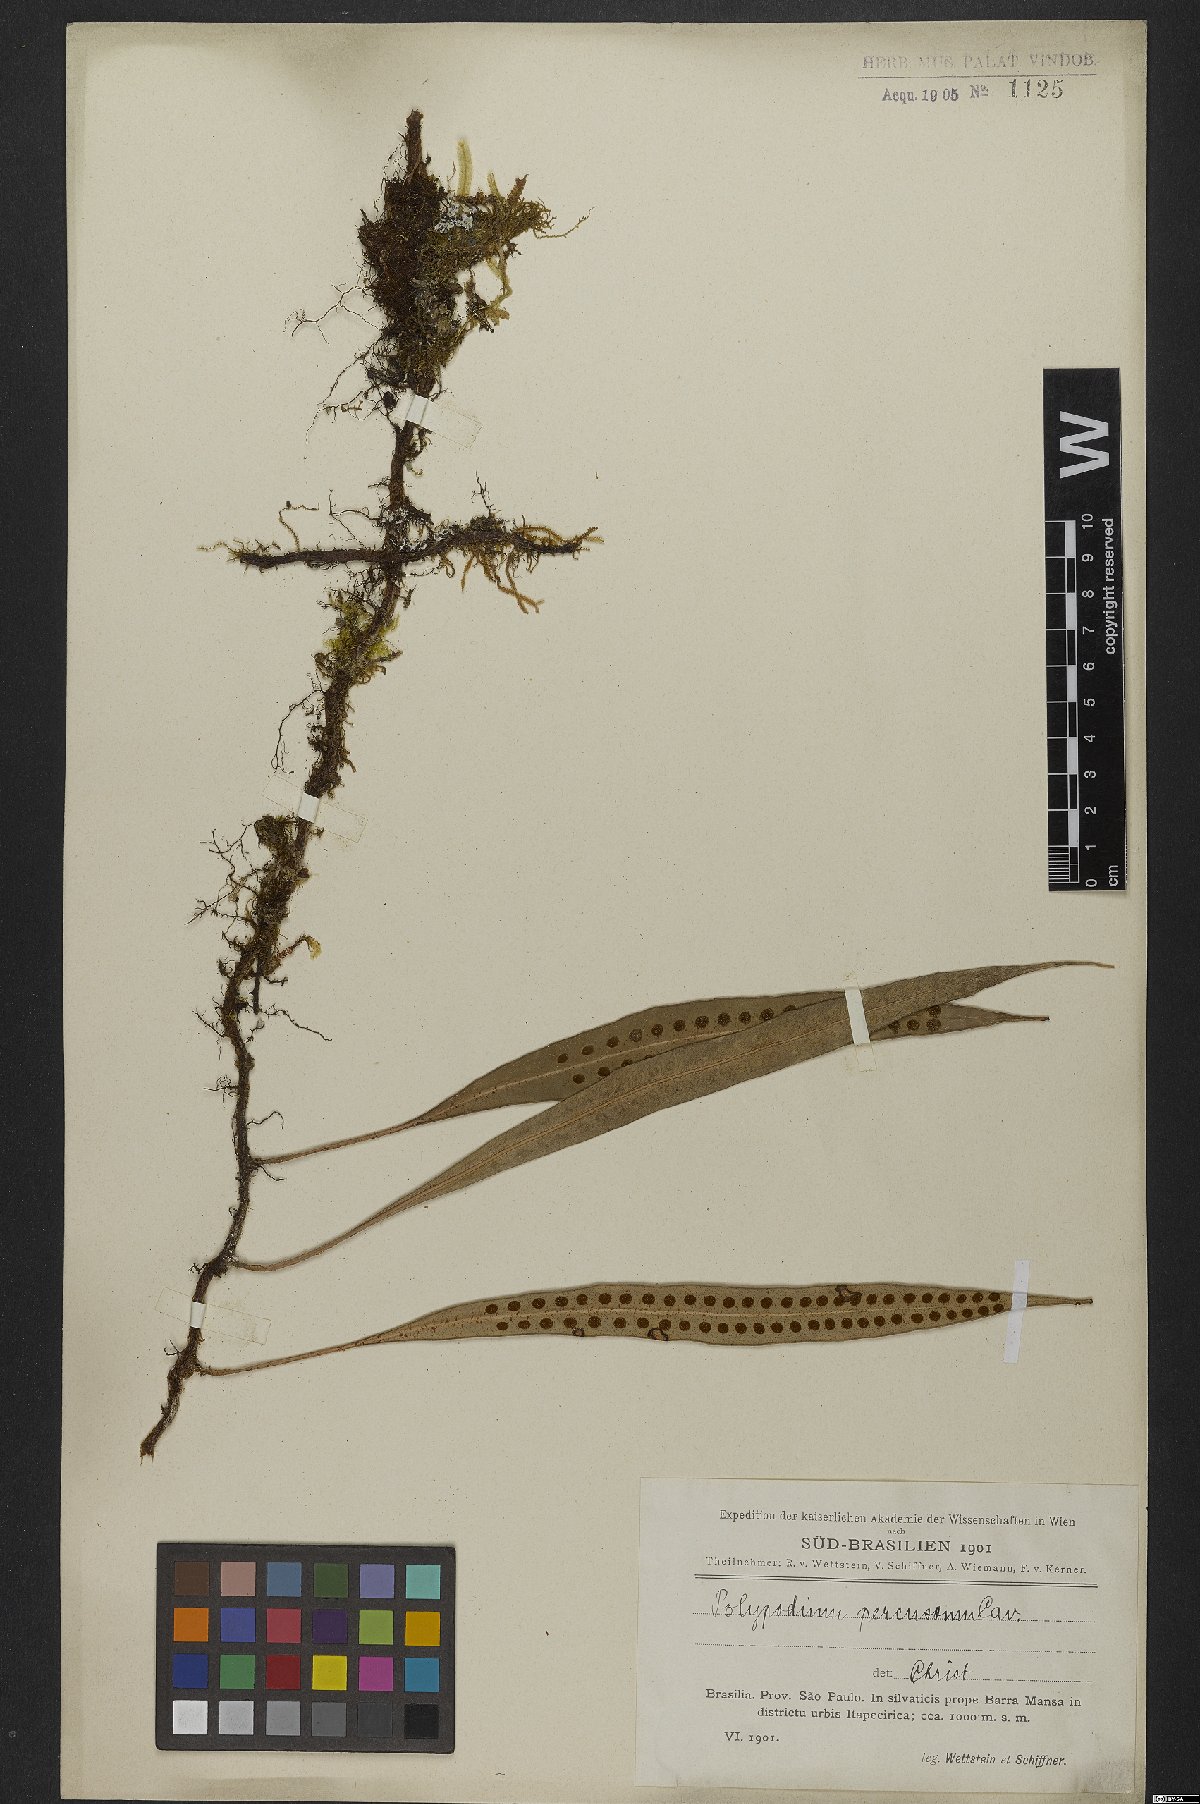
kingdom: Plantae
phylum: Tracheophyta
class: Polypodiopsida
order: Polypodiales
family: Polypodiaceae
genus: Microgramma
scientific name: Microgramma percussa
